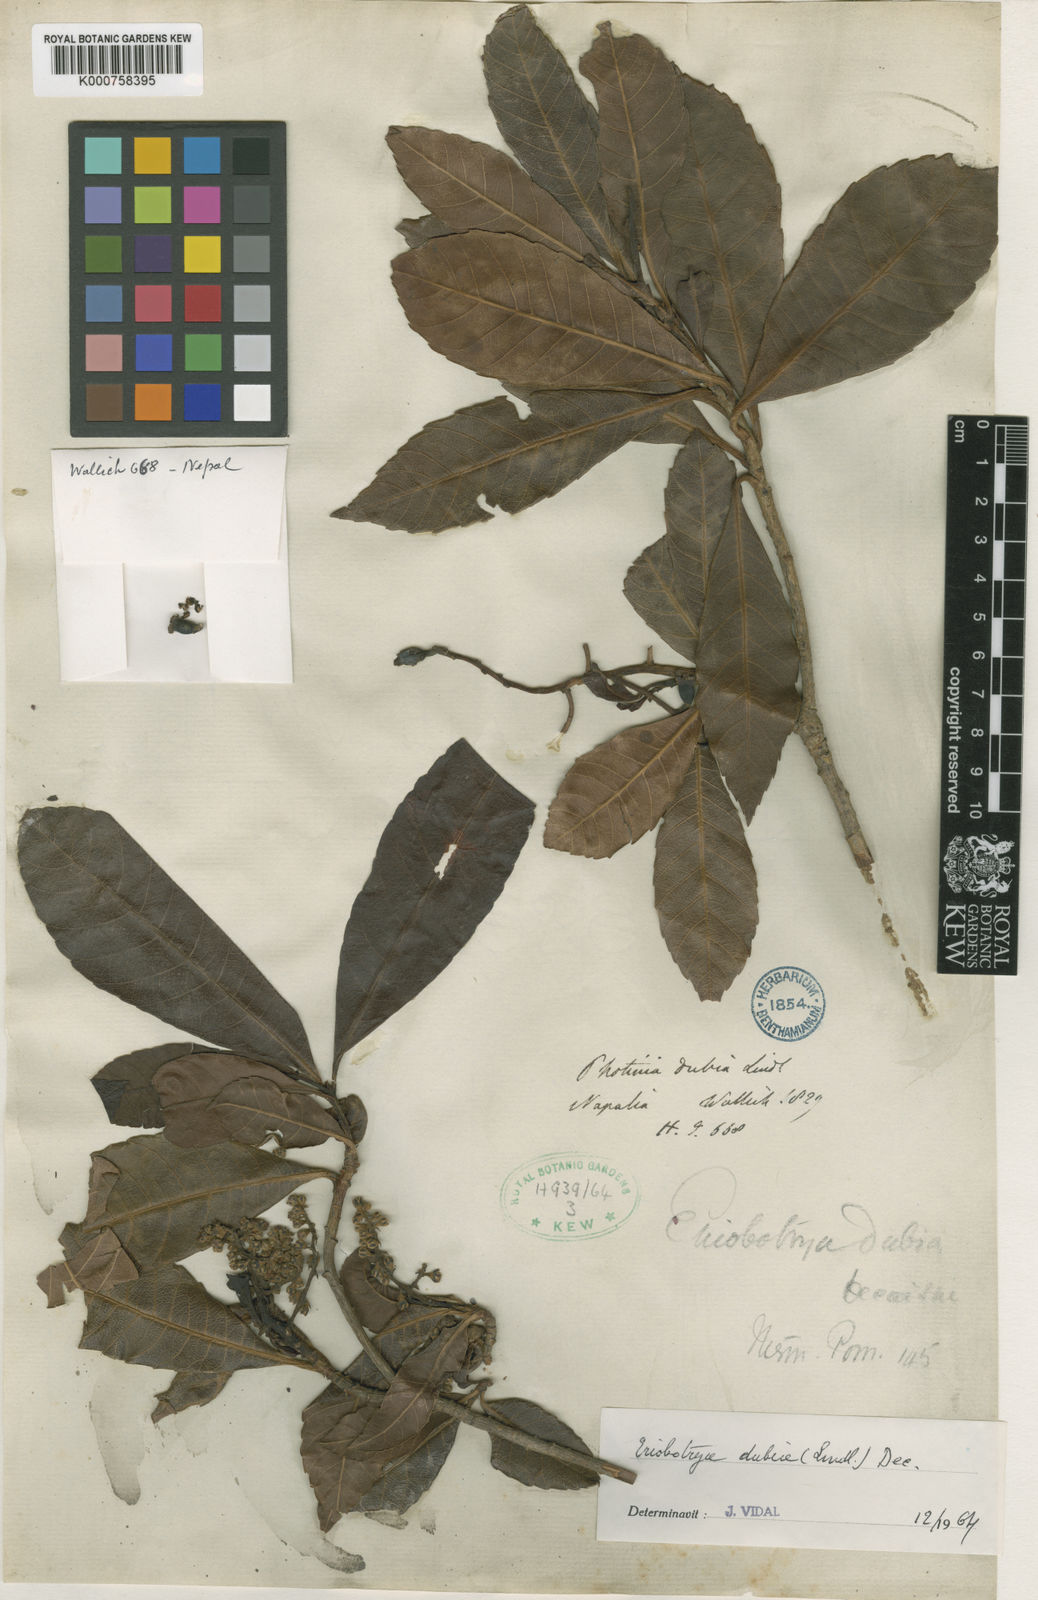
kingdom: Plantae
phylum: Tracheophyta
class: Magnoliopsida
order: Rosales
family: Rosaceae
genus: Rhaphiolepis
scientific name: Rhaphiolepis dubia
